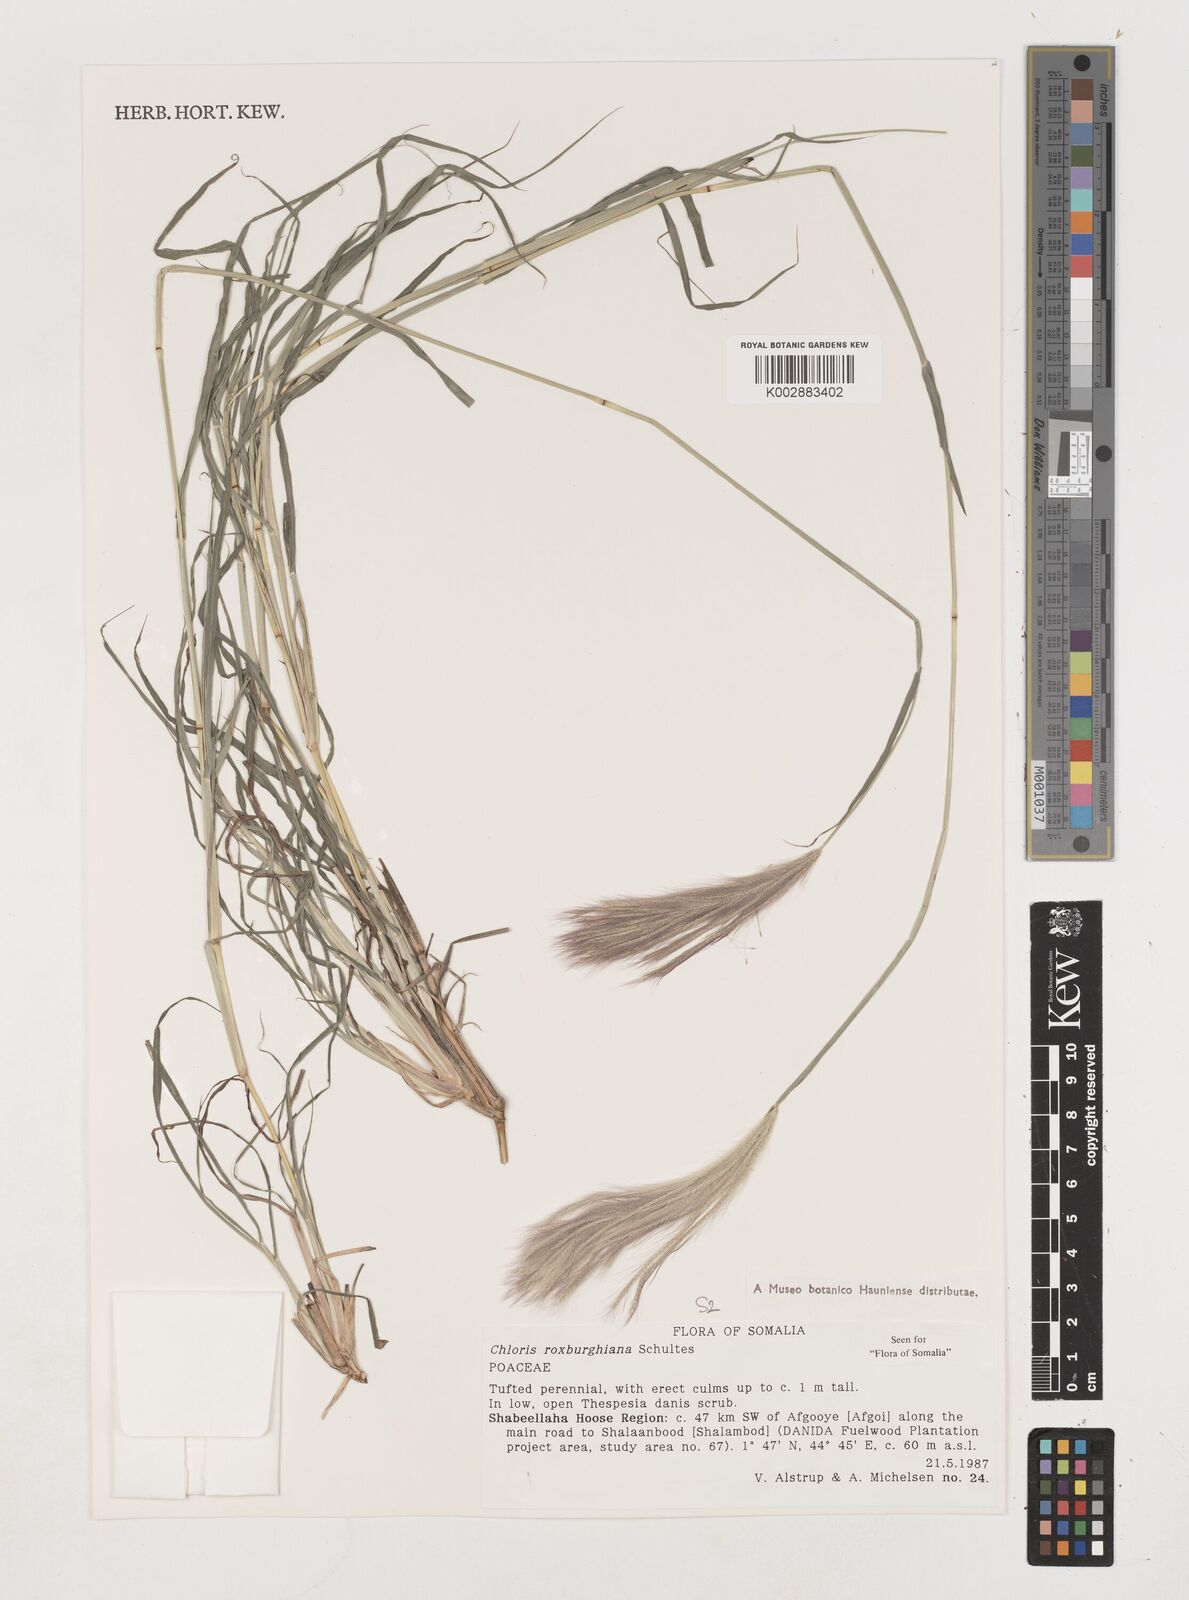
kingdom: Plantae
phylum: Tracheophyta
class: Liliopsida
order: Poales
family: Poaceae
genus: Tetrapogon
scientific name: Tetrapogon roxburghiana
